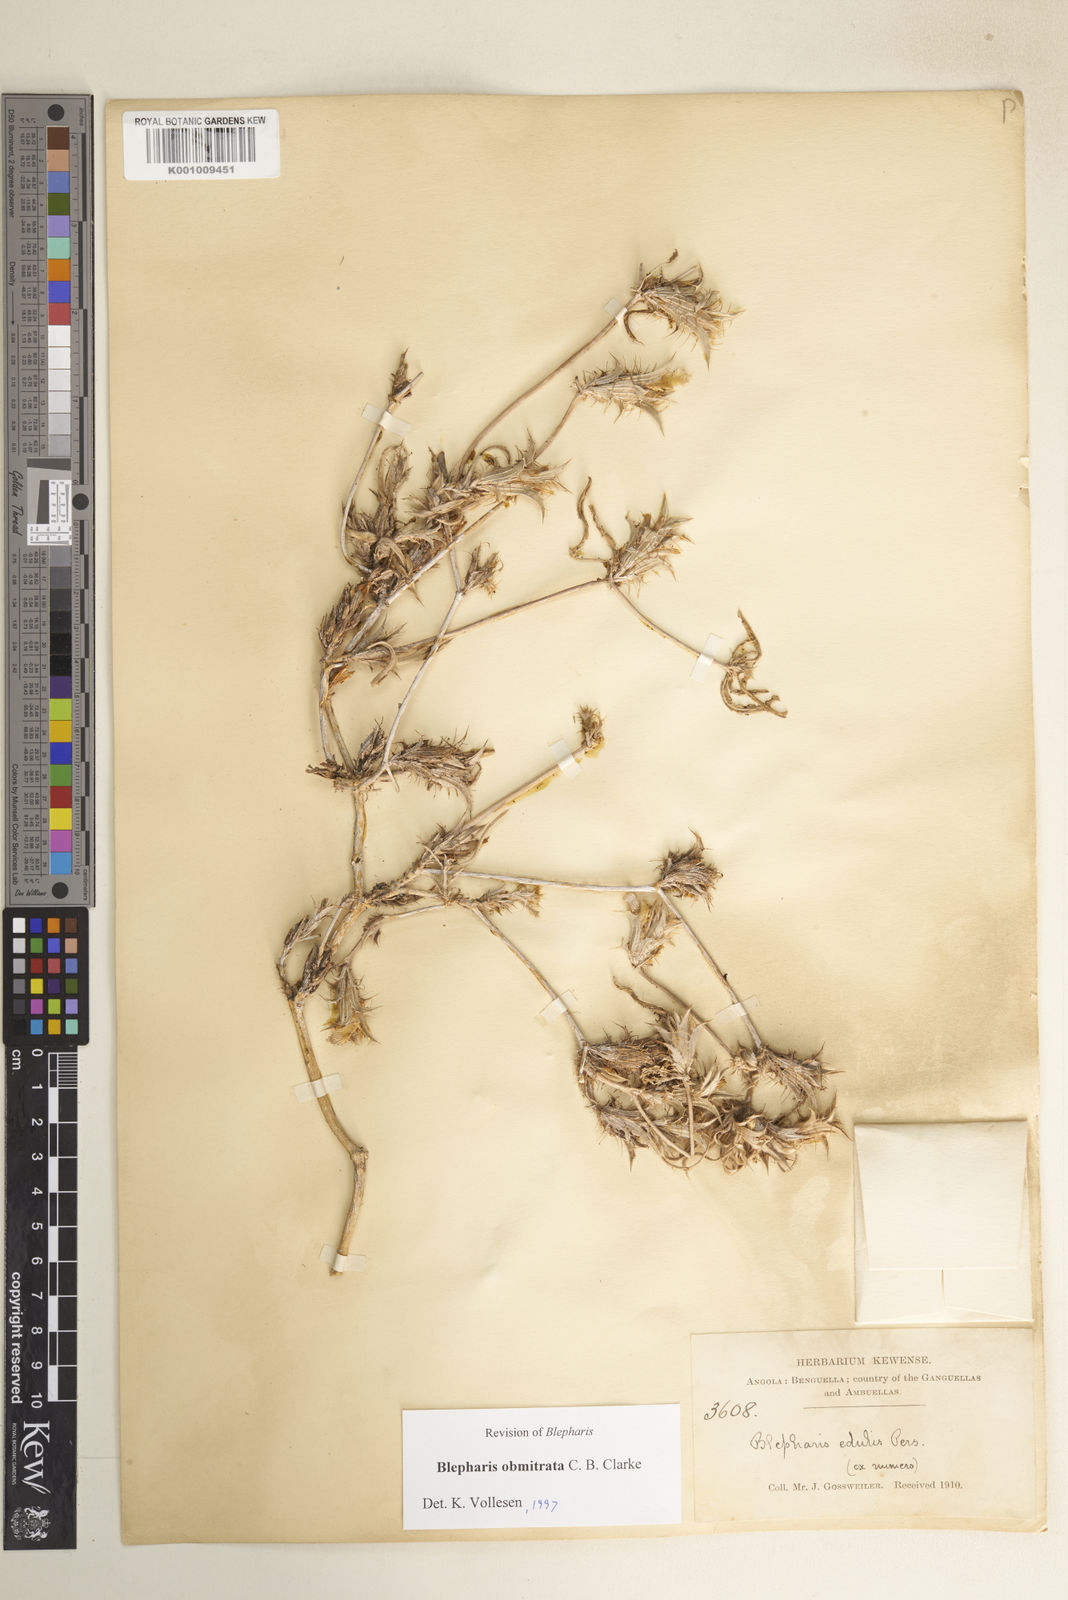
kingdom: Plantae
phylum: Tracheophyta
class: Magnoliopsida
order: Lamiales
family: Acanthaceae
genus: Blepharis
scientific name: Blepharis obmitrata
